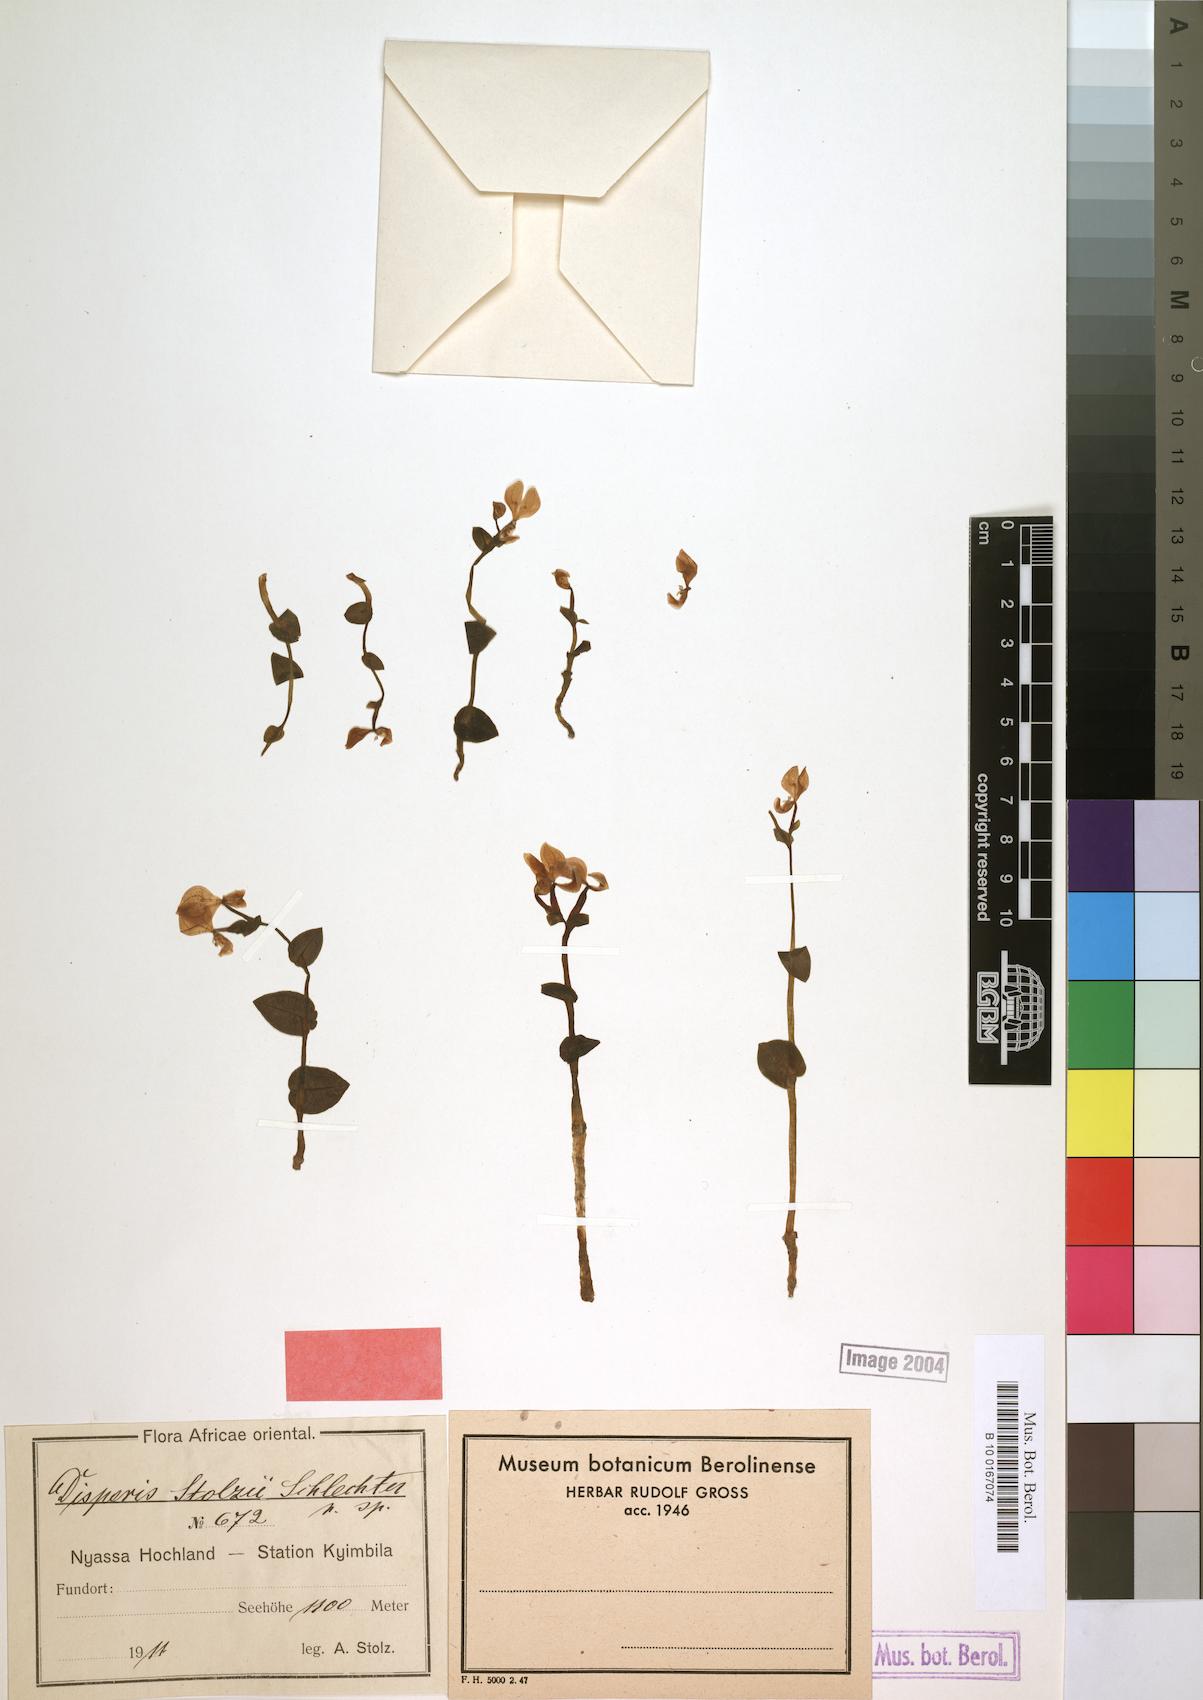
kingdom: Plantae
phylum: Tracheophyta
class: Liliopsida
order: Asparagales
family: Orchidaceae
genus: Disperis
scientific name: Disperis johnstonii
